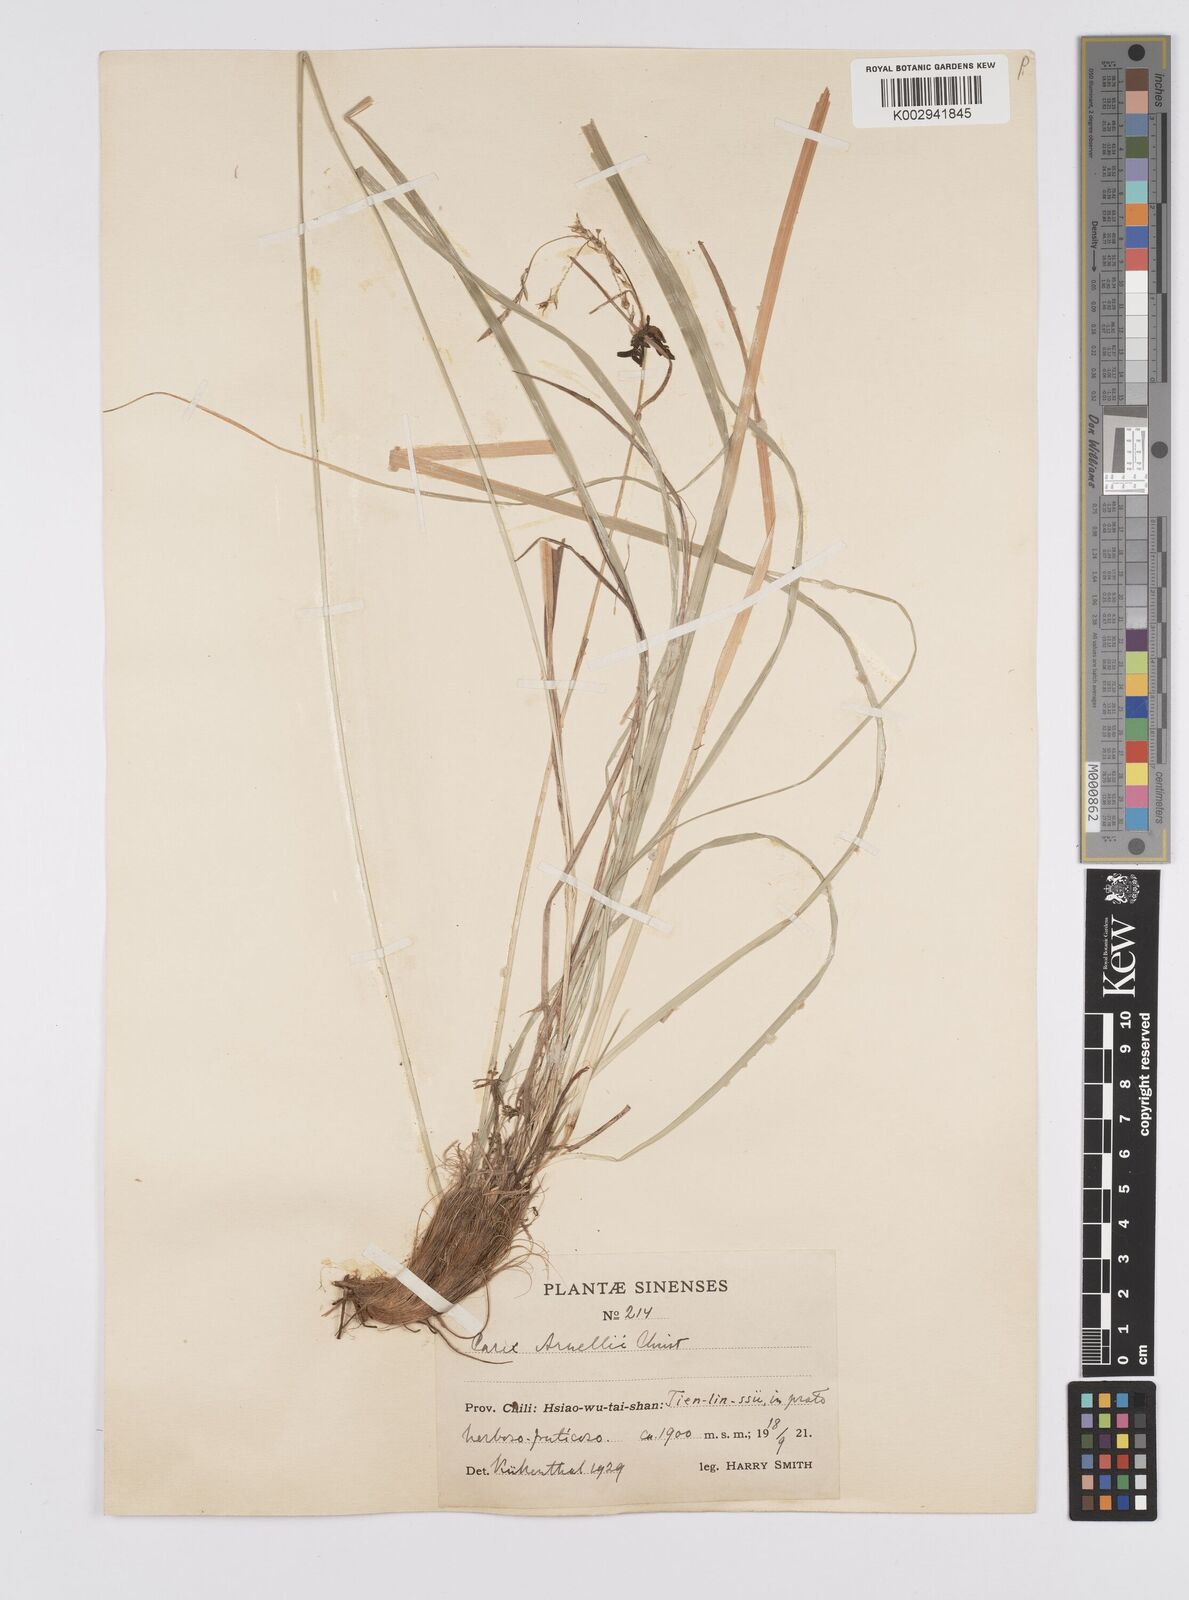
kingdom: Plantae
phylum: Tracheophyta
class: Liliopsida
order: Poales
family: Cyperaceae
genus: Carex
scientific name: Carex arnellii
